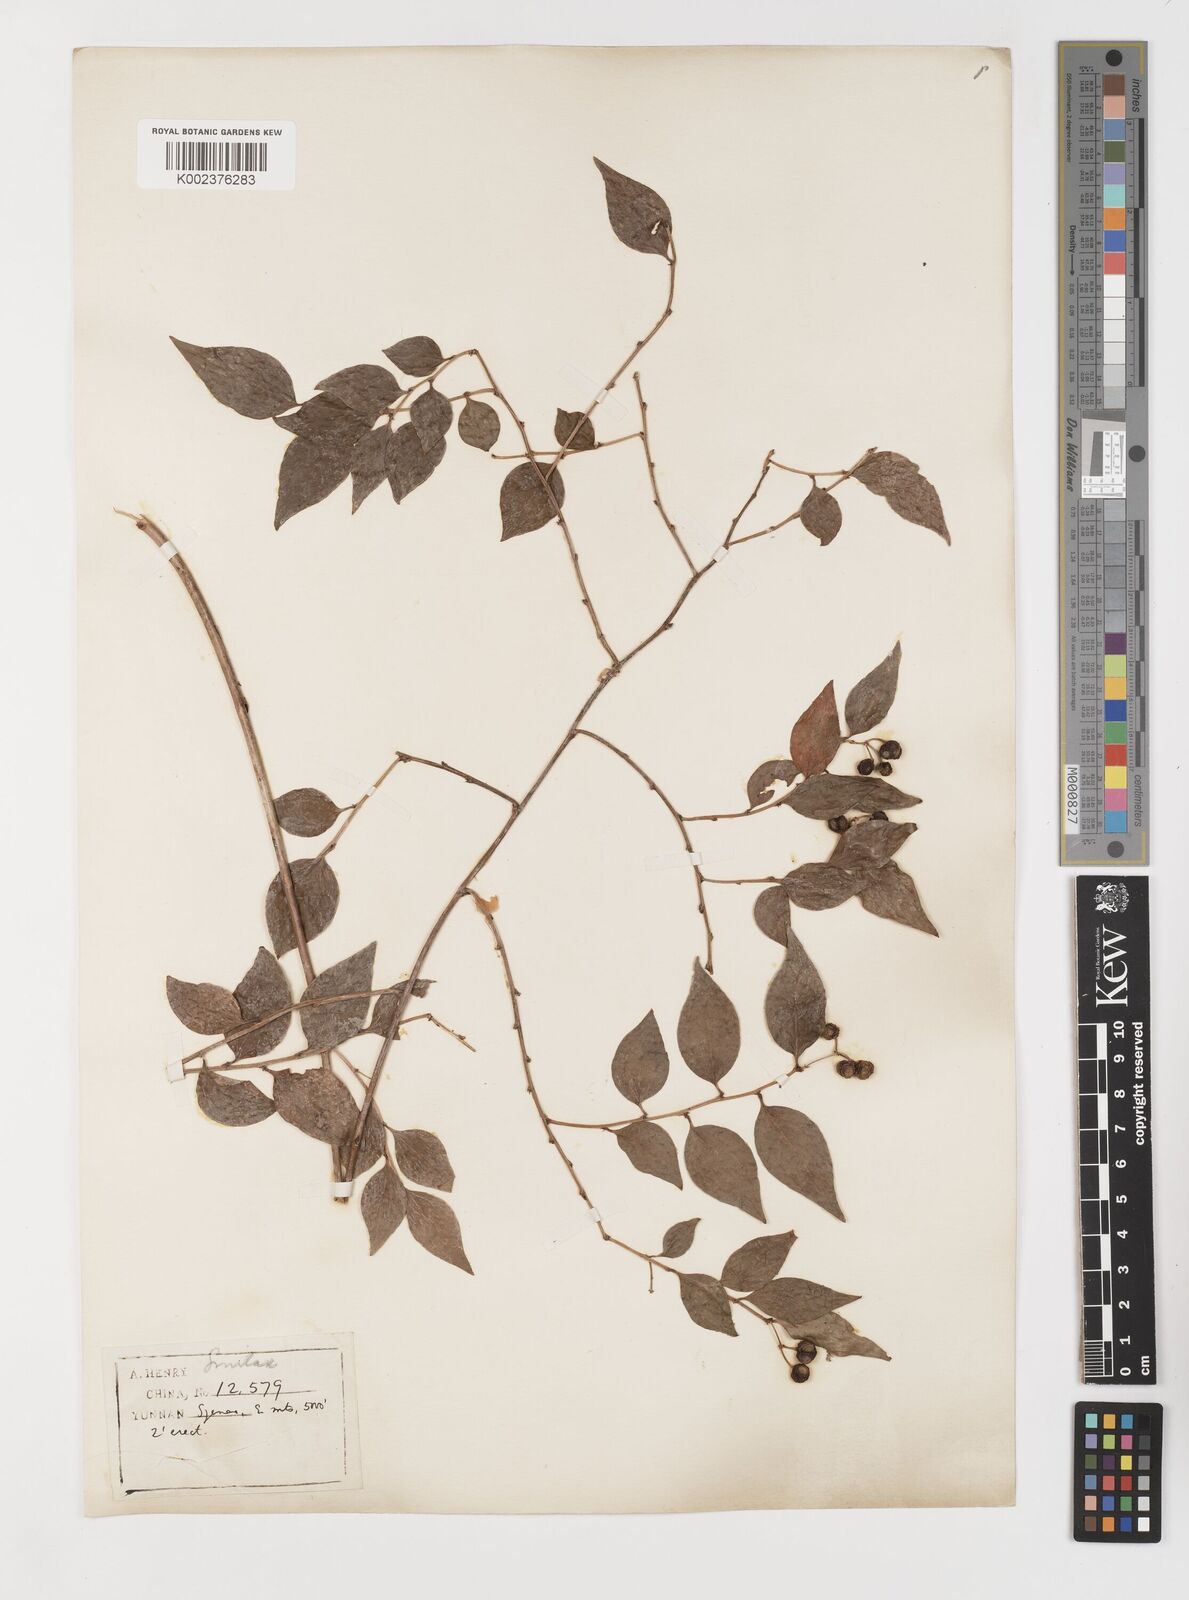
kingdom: Plantae
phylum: Tracheophyta
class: Liliopsida
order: Liliales
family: Smilacaceae
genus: Smilax
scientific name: Smilax myrtillus
